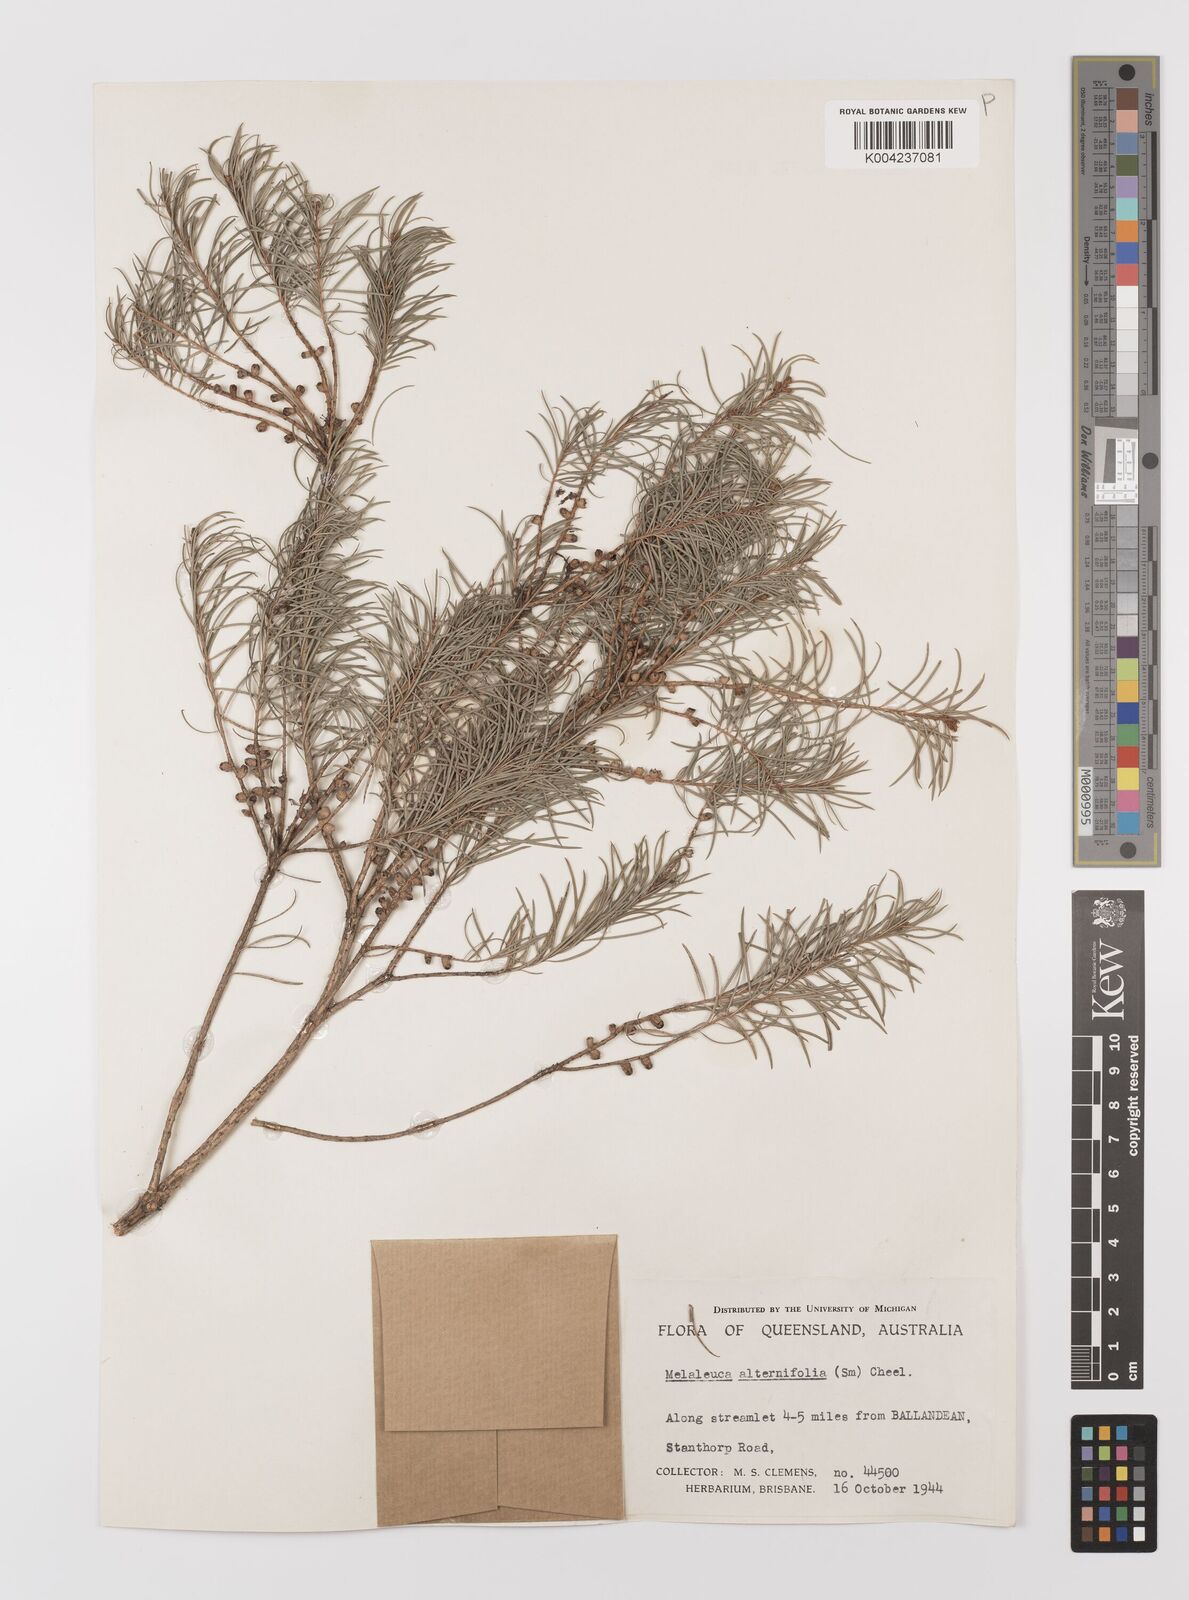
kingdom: Plantae
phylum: Tracheophyta
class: Magnoliopsida
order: Myrtales
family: Myrtaceae
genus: Melaleuca
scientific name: Melaleuca alternifolia
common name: Narrow-leaf paperbark
